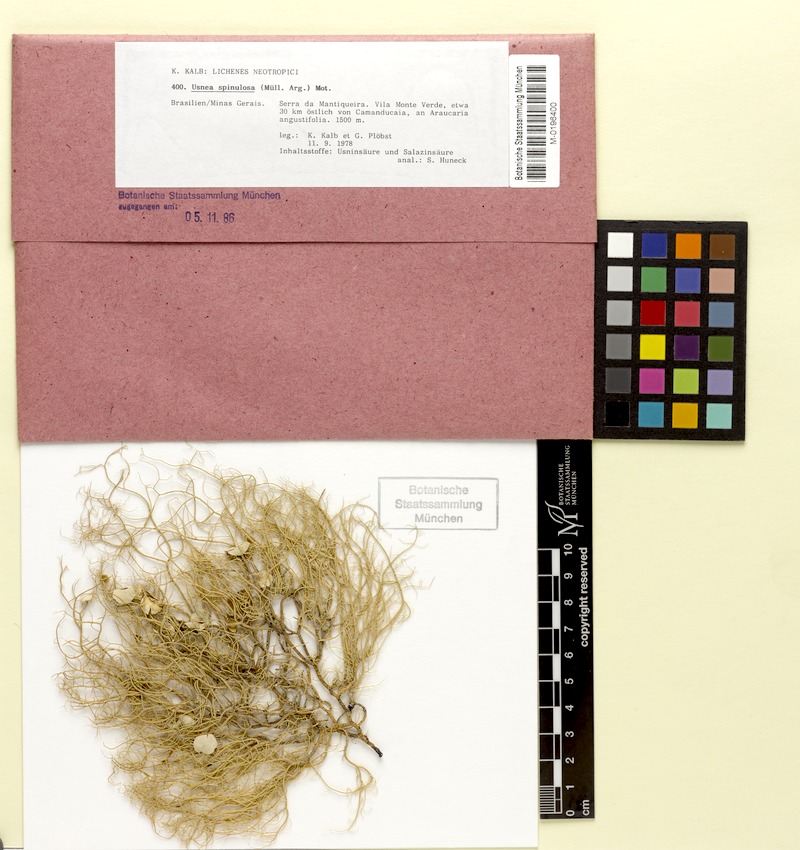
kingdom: Fungi
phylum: Ascomycota
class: Lecanoromycetes
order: Lecanorales
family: Parmeliaceae
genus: Usnea
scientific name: Usnea spinulosa
